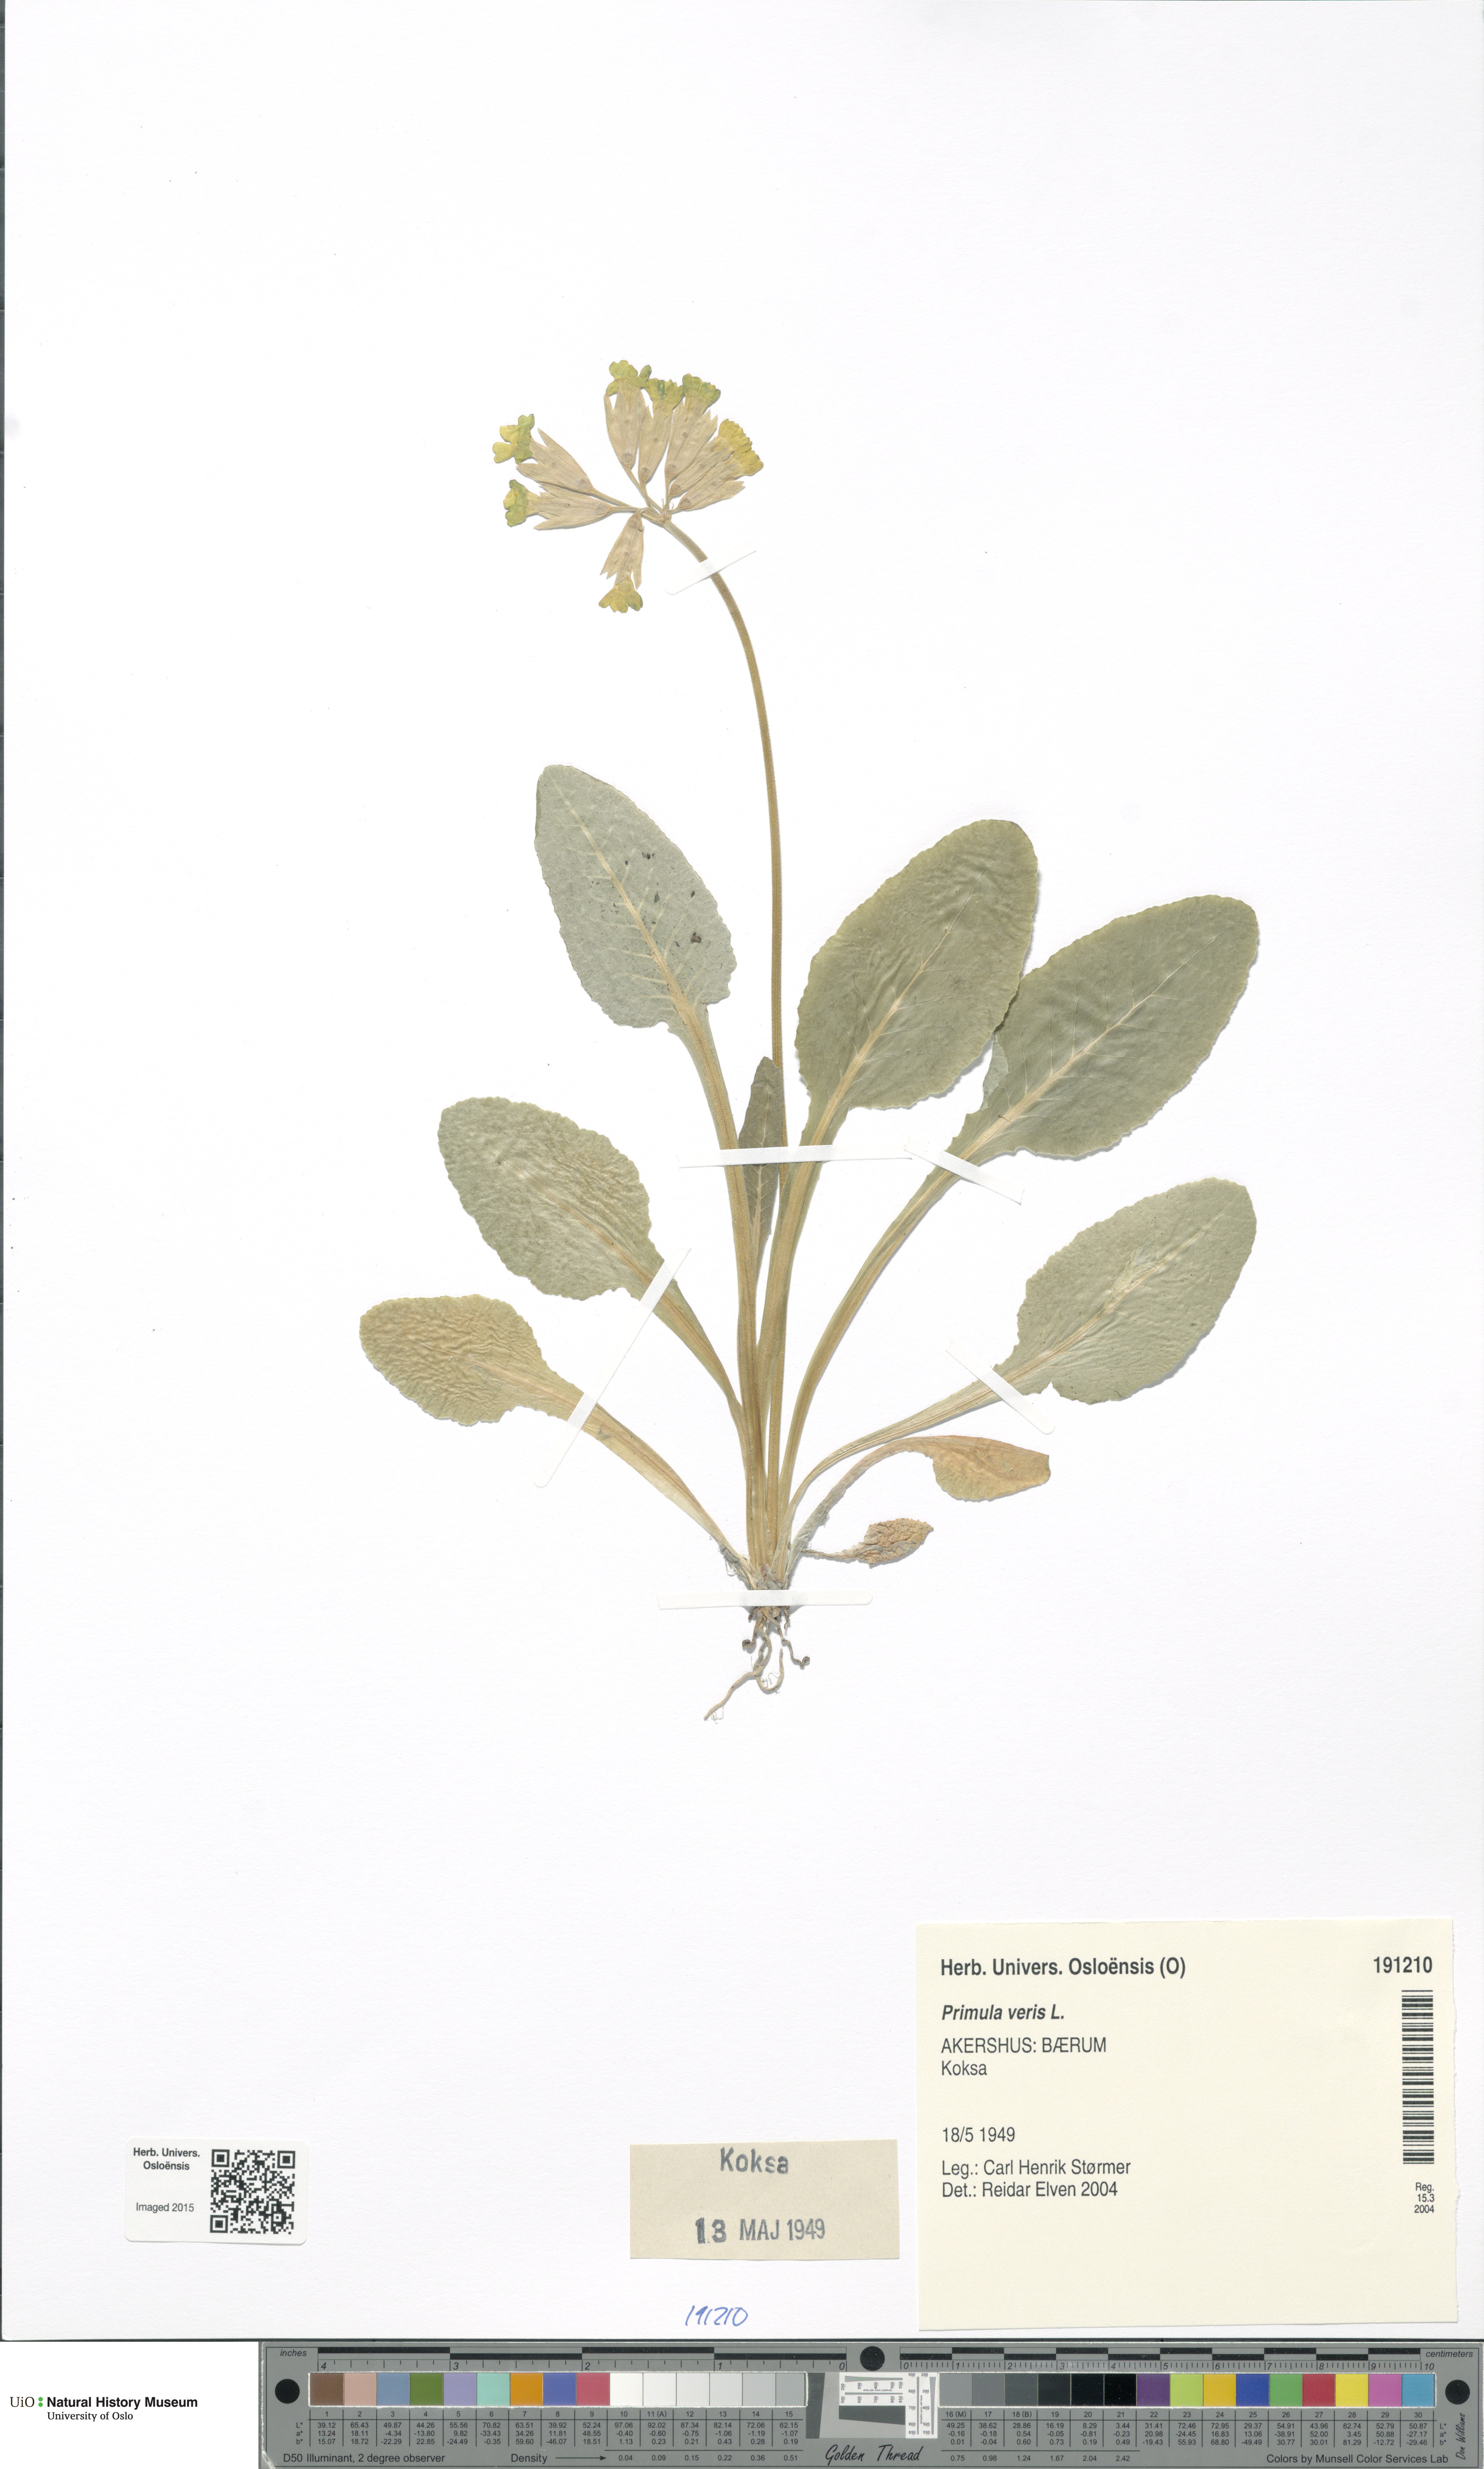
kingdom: Plantae
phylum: Tracheophyta
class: Magnoliopsida
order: Ericales
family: Primulaceae
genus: Primula
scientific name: Primula veris
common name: Cowslip
